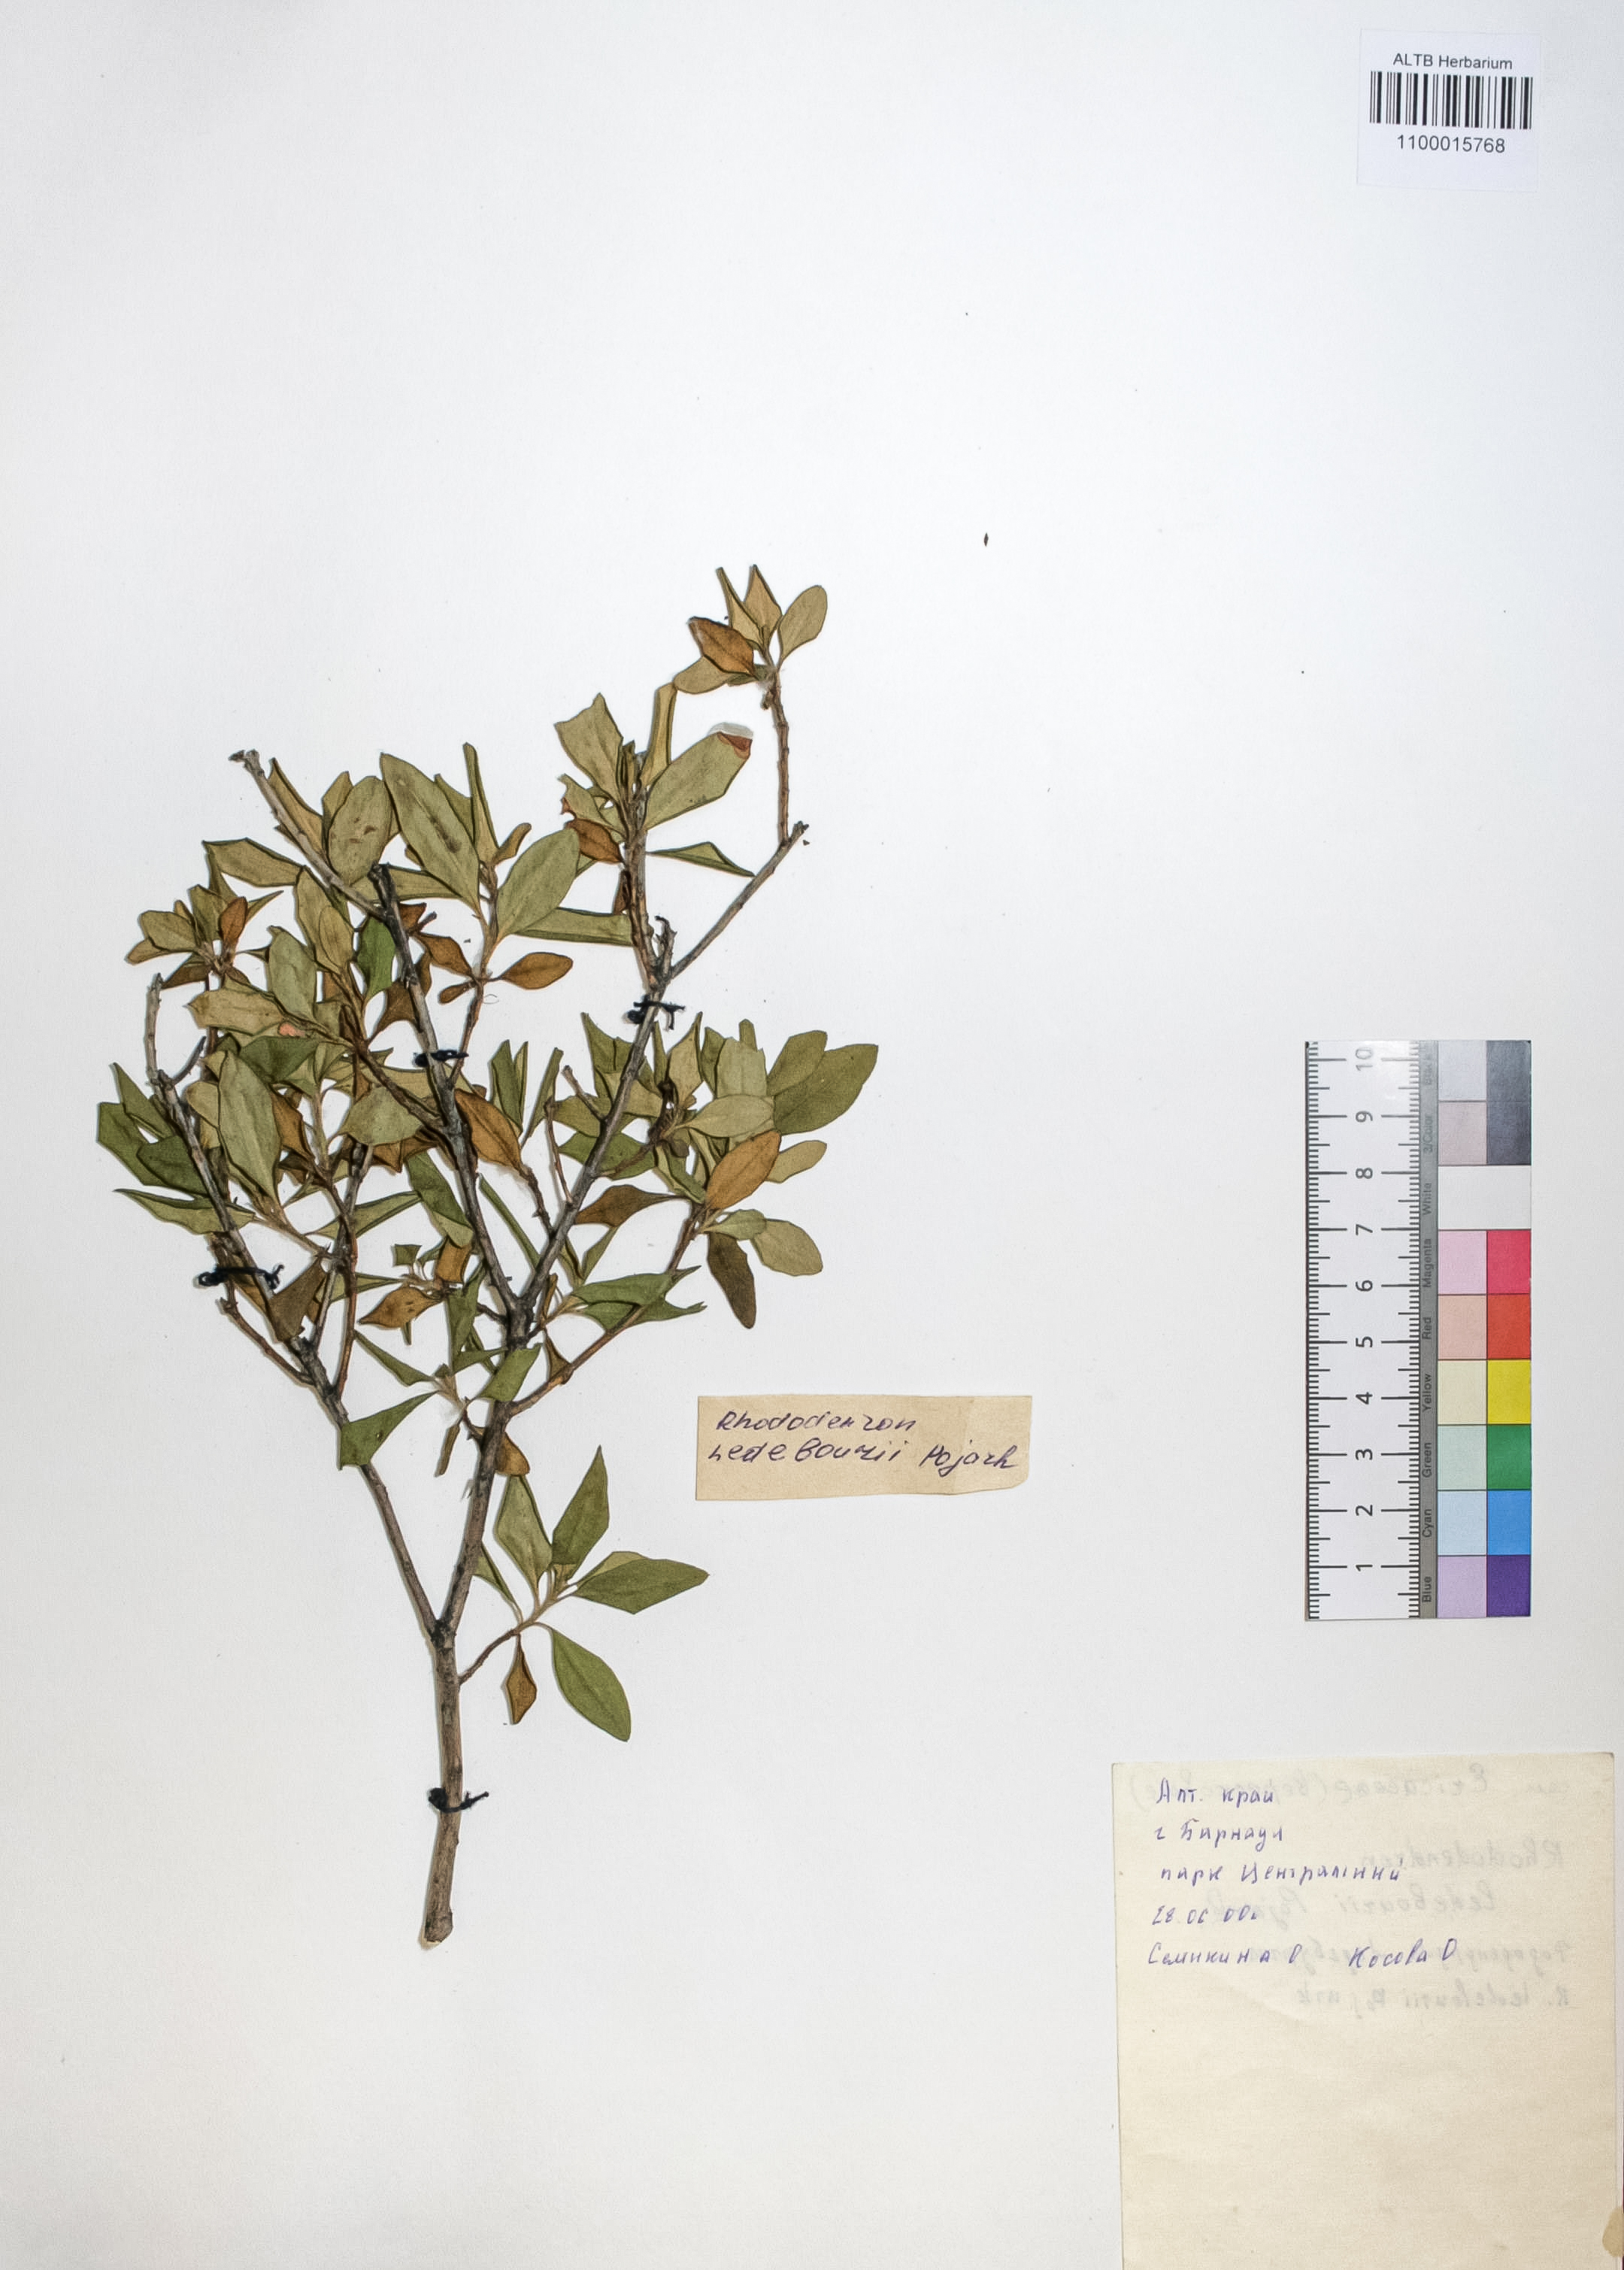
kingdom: Plantae
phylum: Tracheophyta
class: Magnoliopsida
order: Ericales
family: Ericaceae
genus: Rhododendron
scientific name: Rhododendron dauricum
